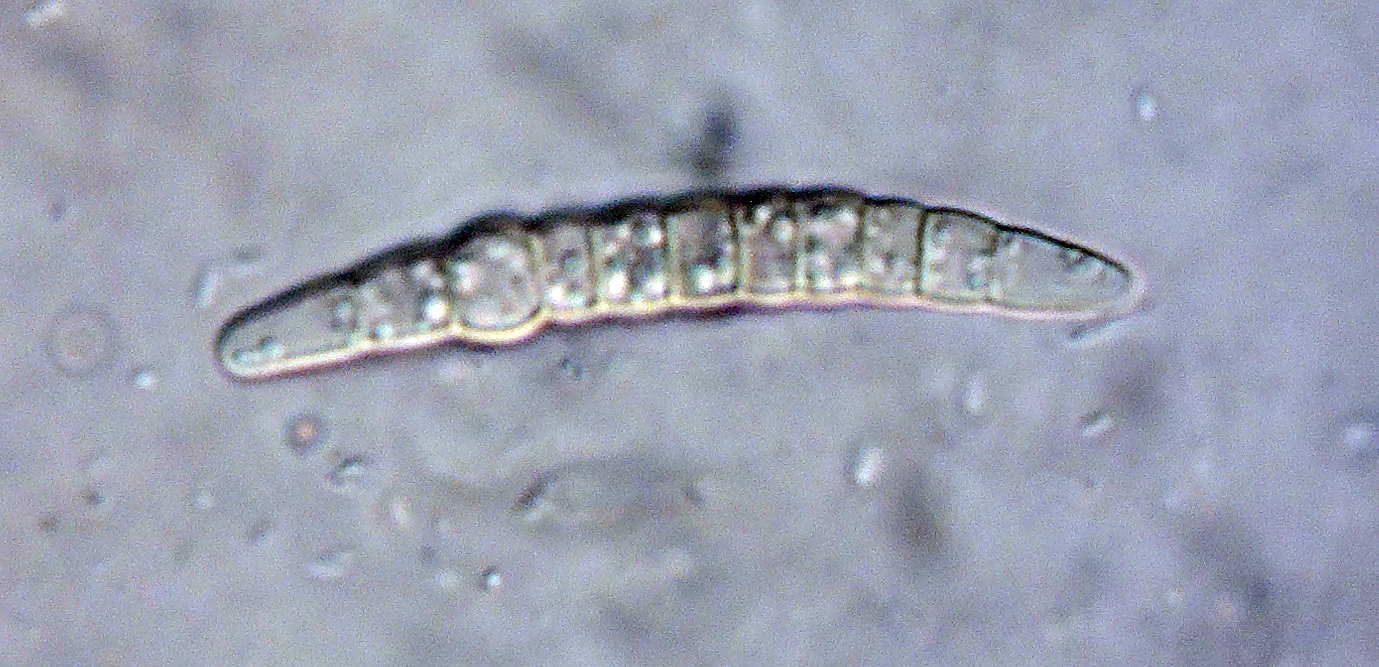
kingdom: Fungi
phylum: Ascomycota
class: Dothideomycetes
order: Pleosporales
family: Phaeosphaeriaceae
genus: Phaeosphaeria
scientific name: Phaeosphaeria graminis
